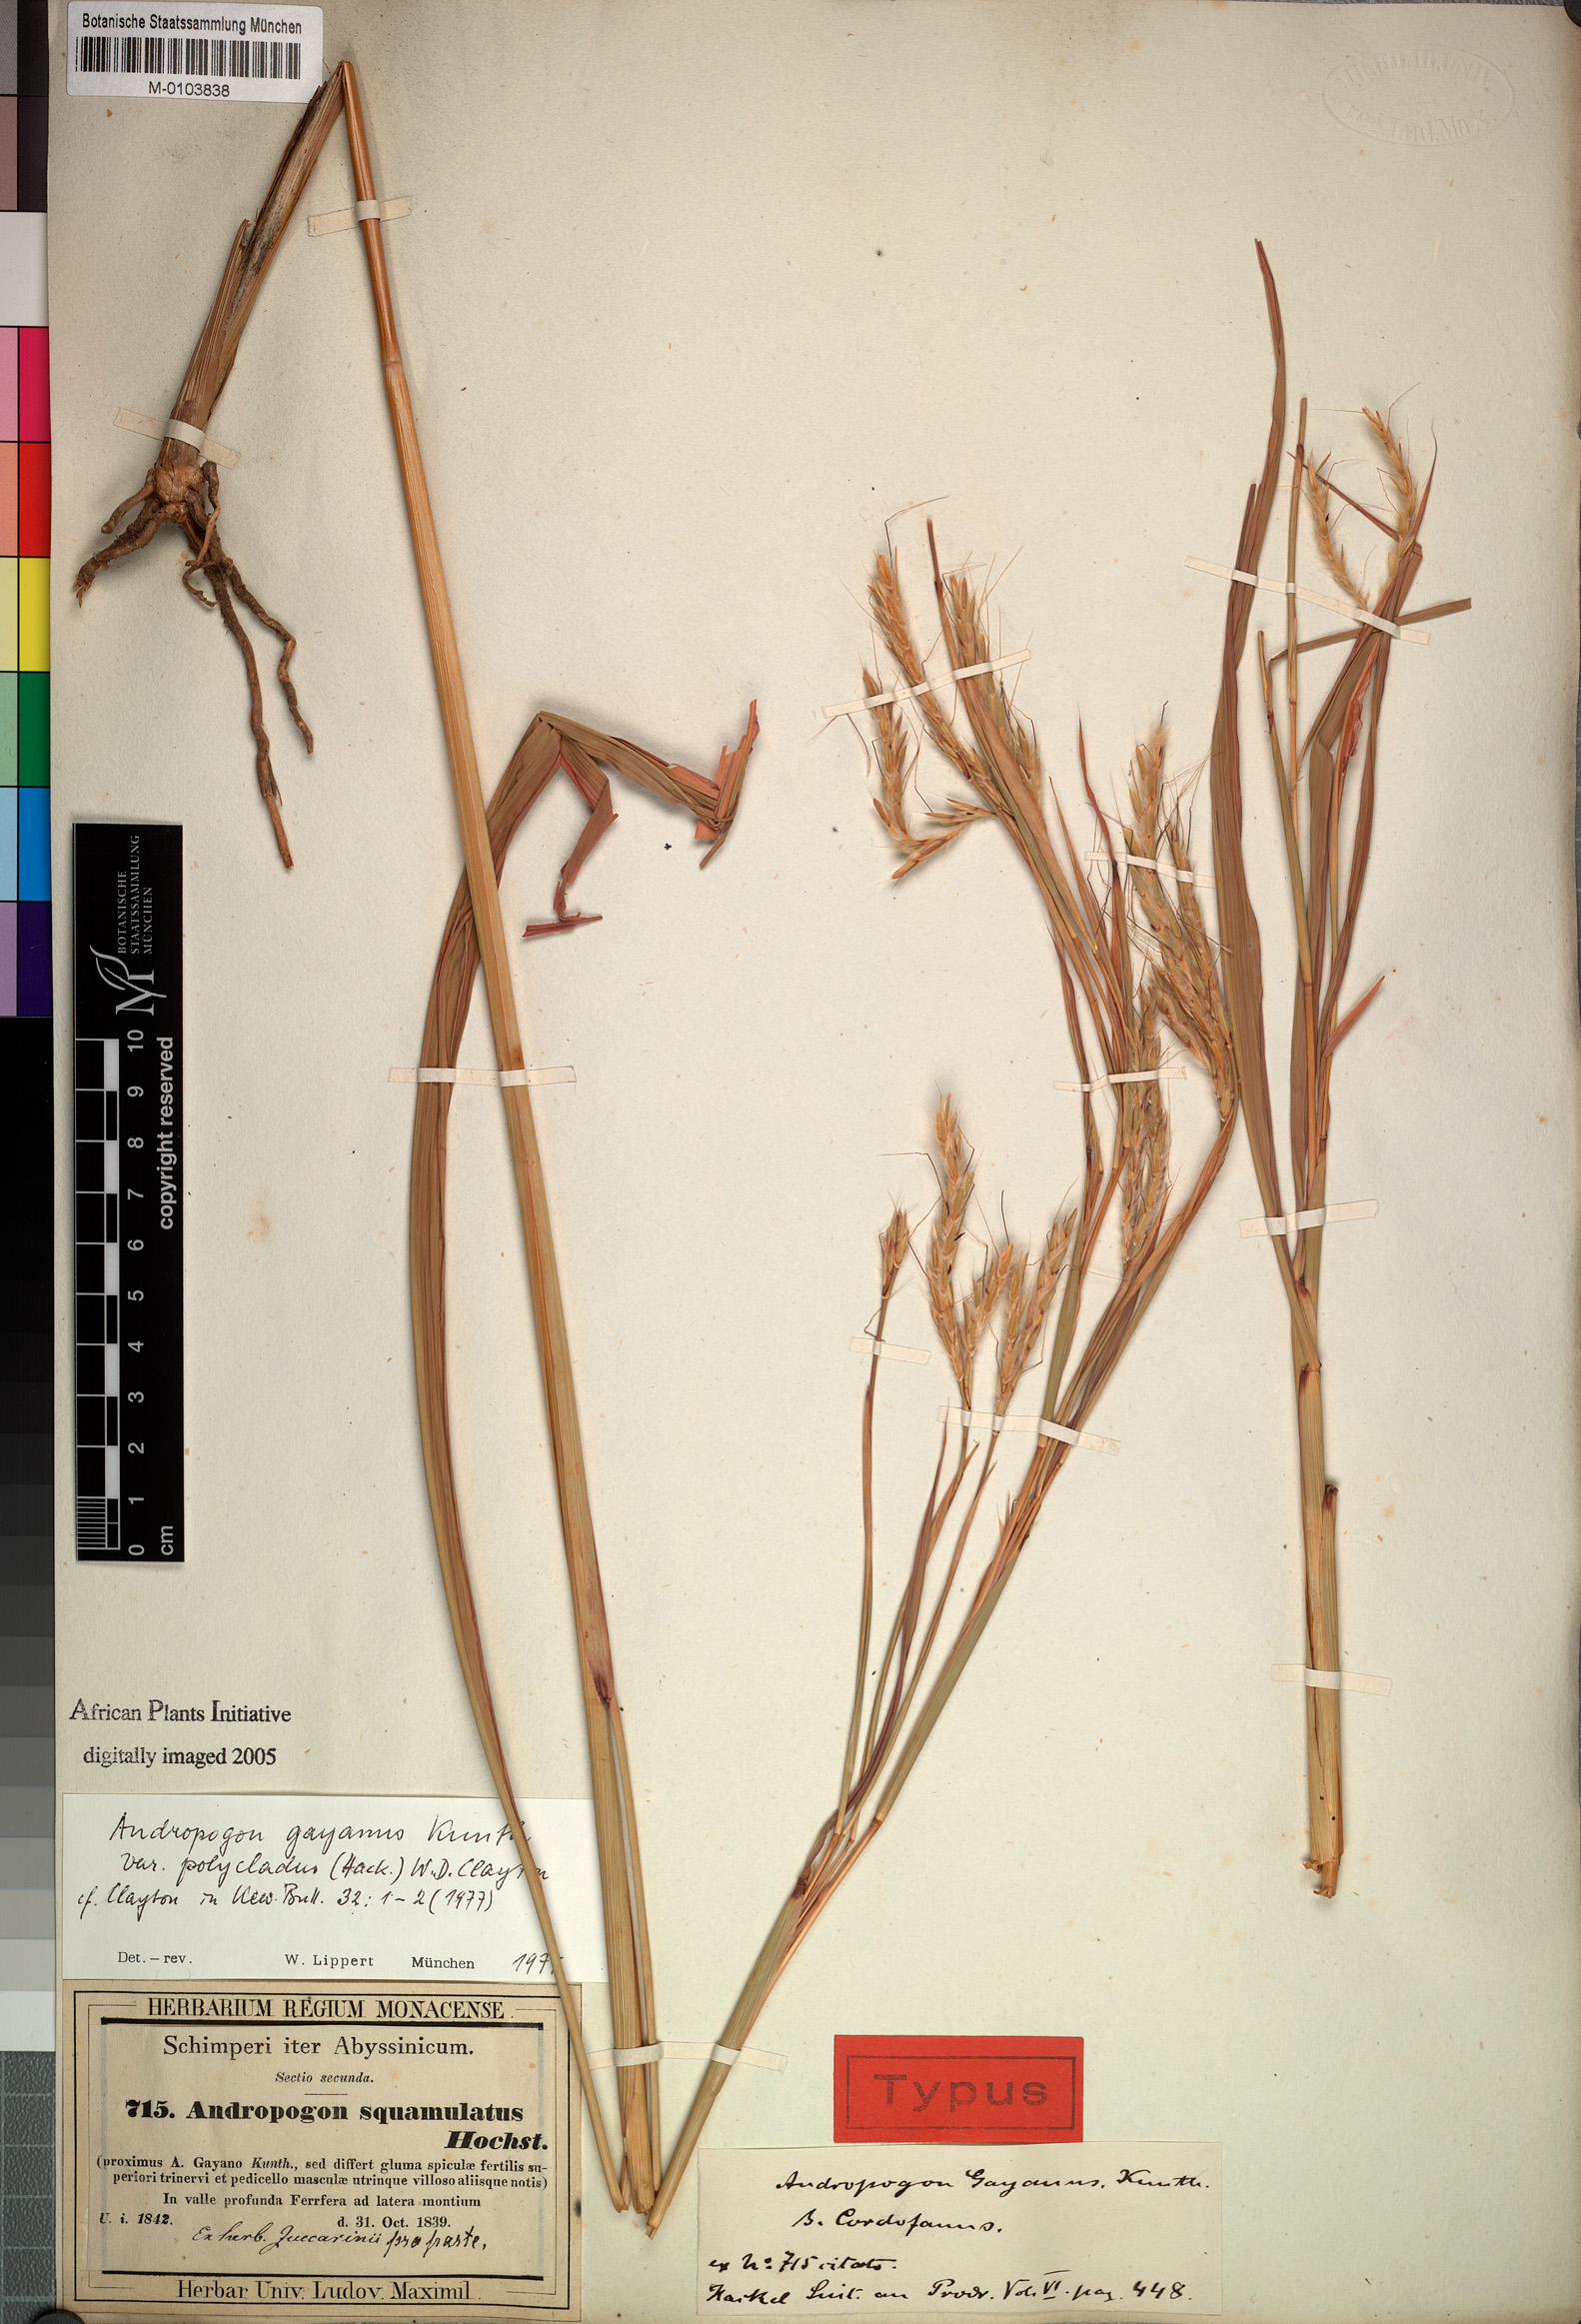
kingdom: Plantae
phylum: Tracheophyta
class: Liliopsida
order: Poales
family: Poaceae
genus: Andropogon
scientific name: Andropogon gayanus
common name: Tambuki grass
